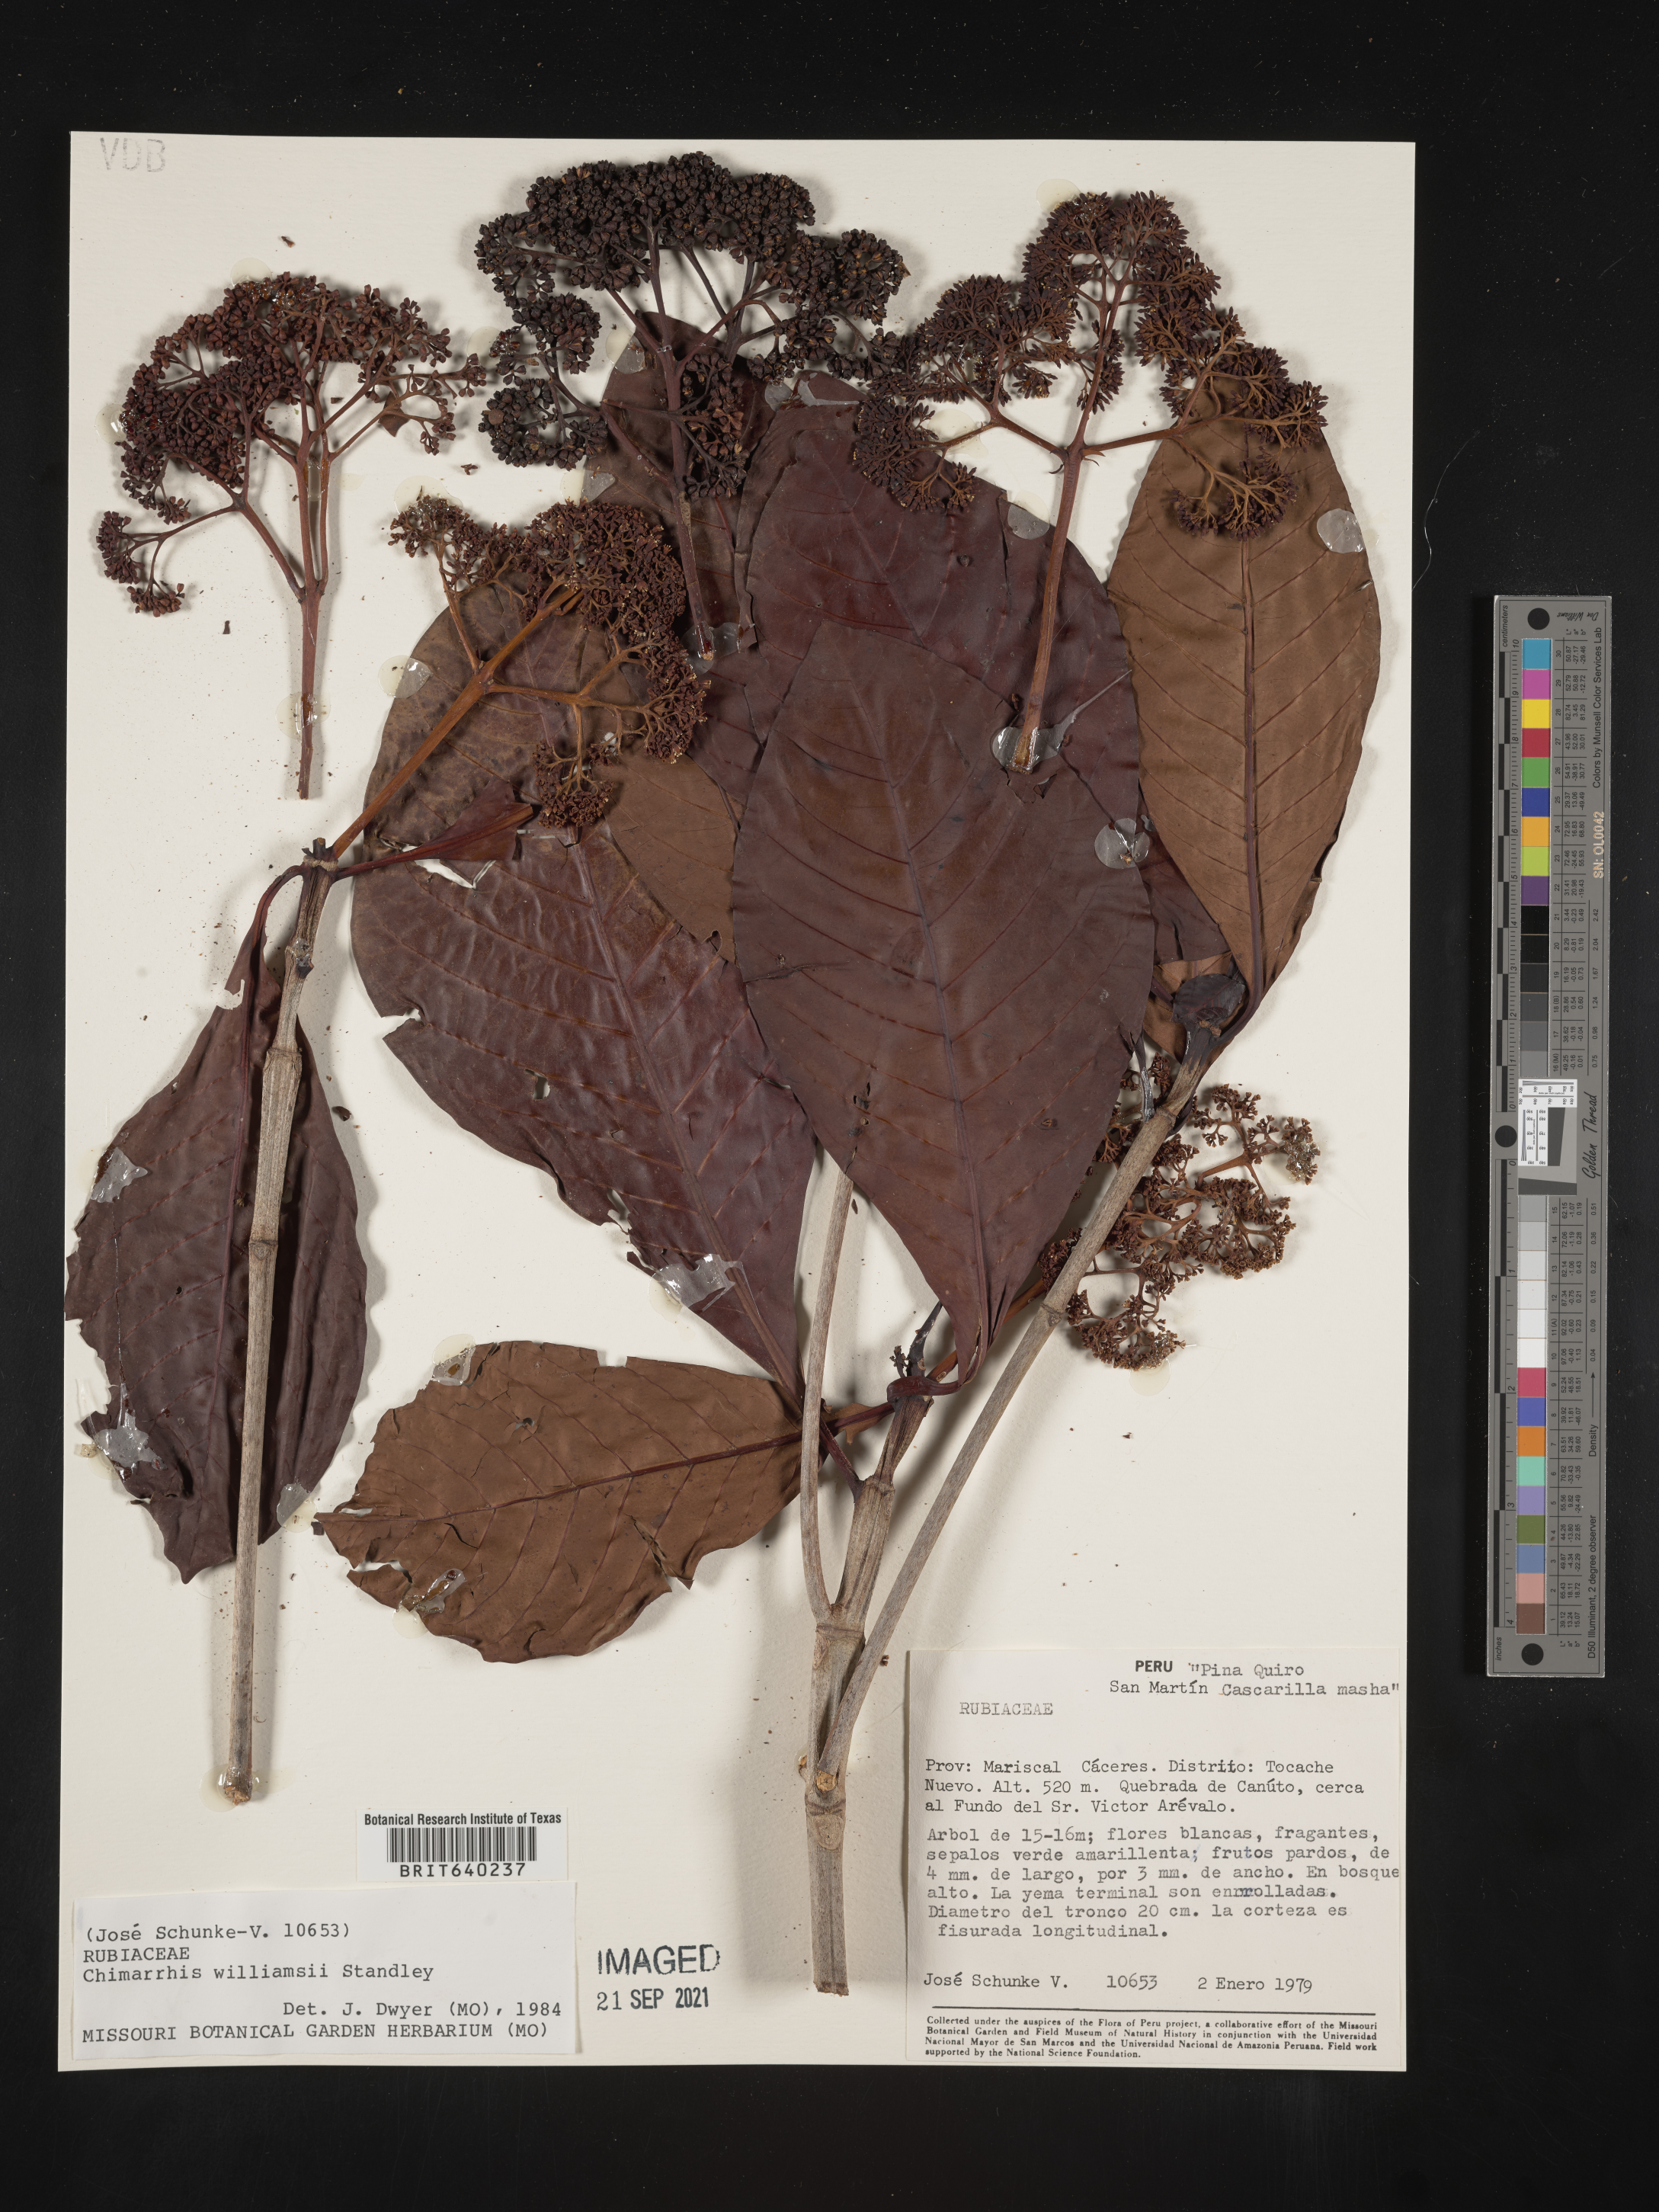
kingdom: Plantae
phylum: Tracheophyta
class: Magnoliopsida
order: Gentianales
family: Rubiaceae
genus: Chimarrhis
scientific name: Chimarrhis
